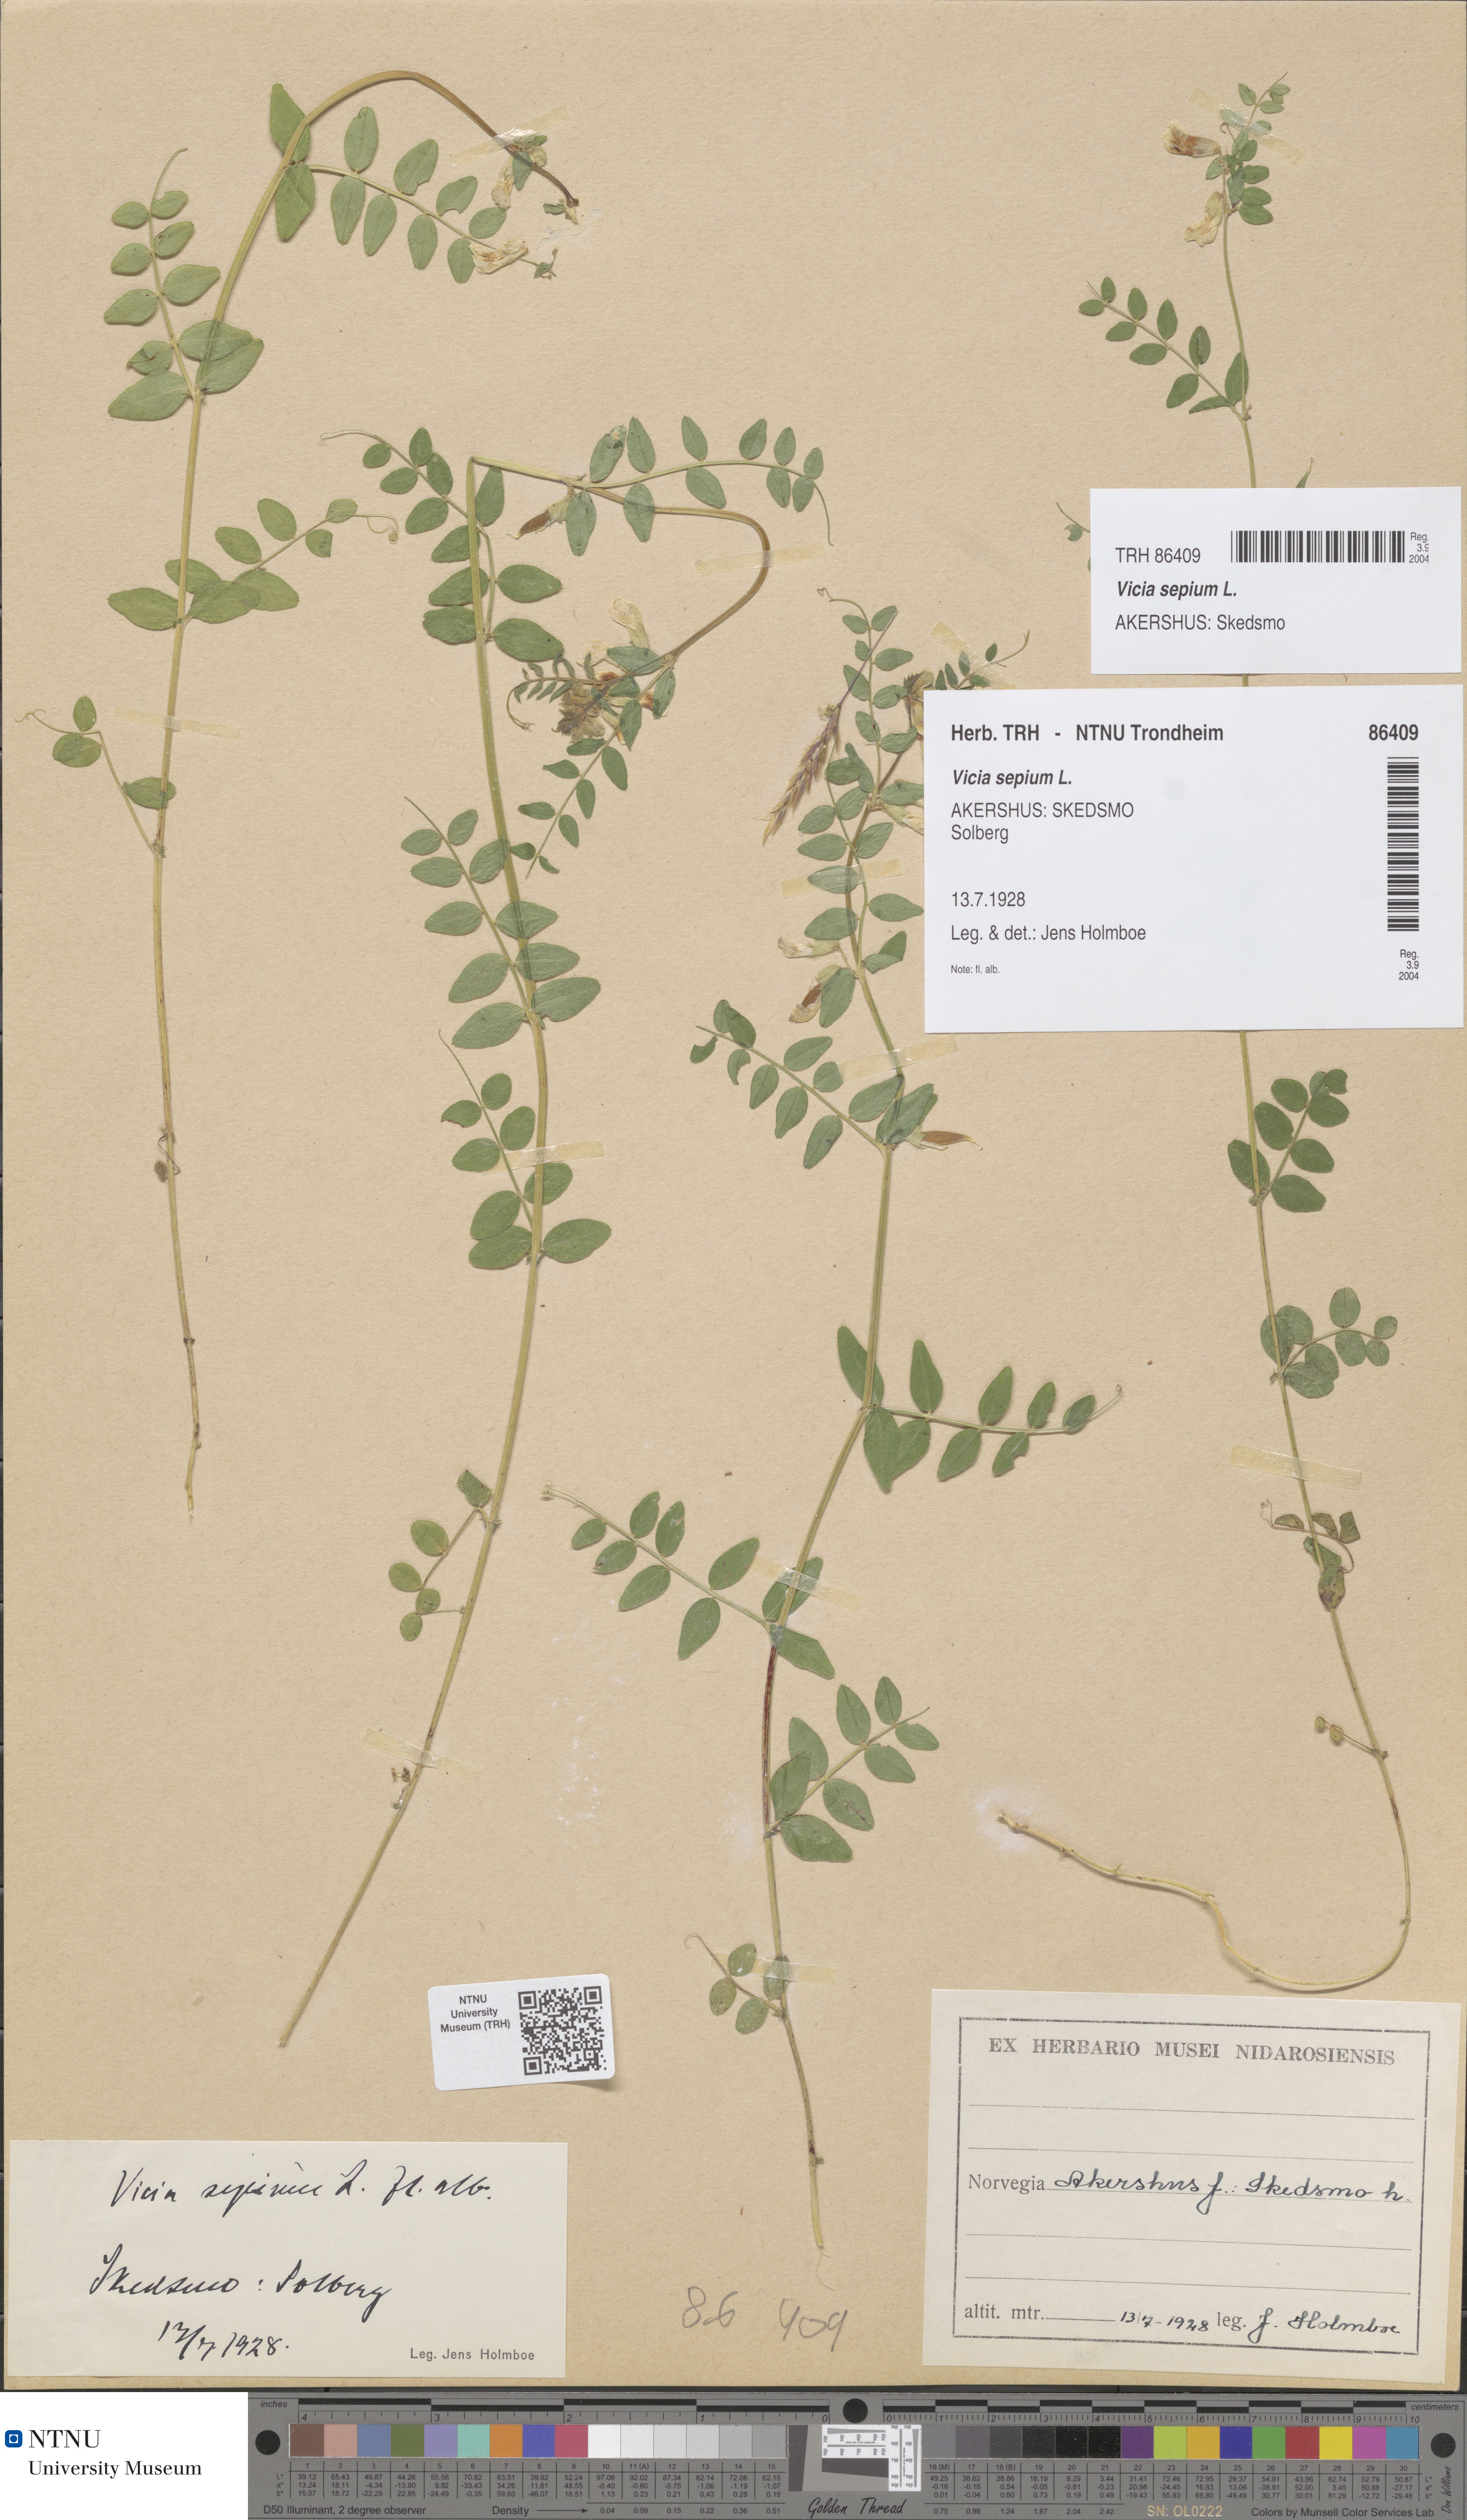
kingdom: Plantae
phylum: Tracheophyta
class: Magnoliopsida
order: Fabales
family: Fabaceae
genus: Vicia
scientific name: Vicia sepium
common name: Bush vetch
